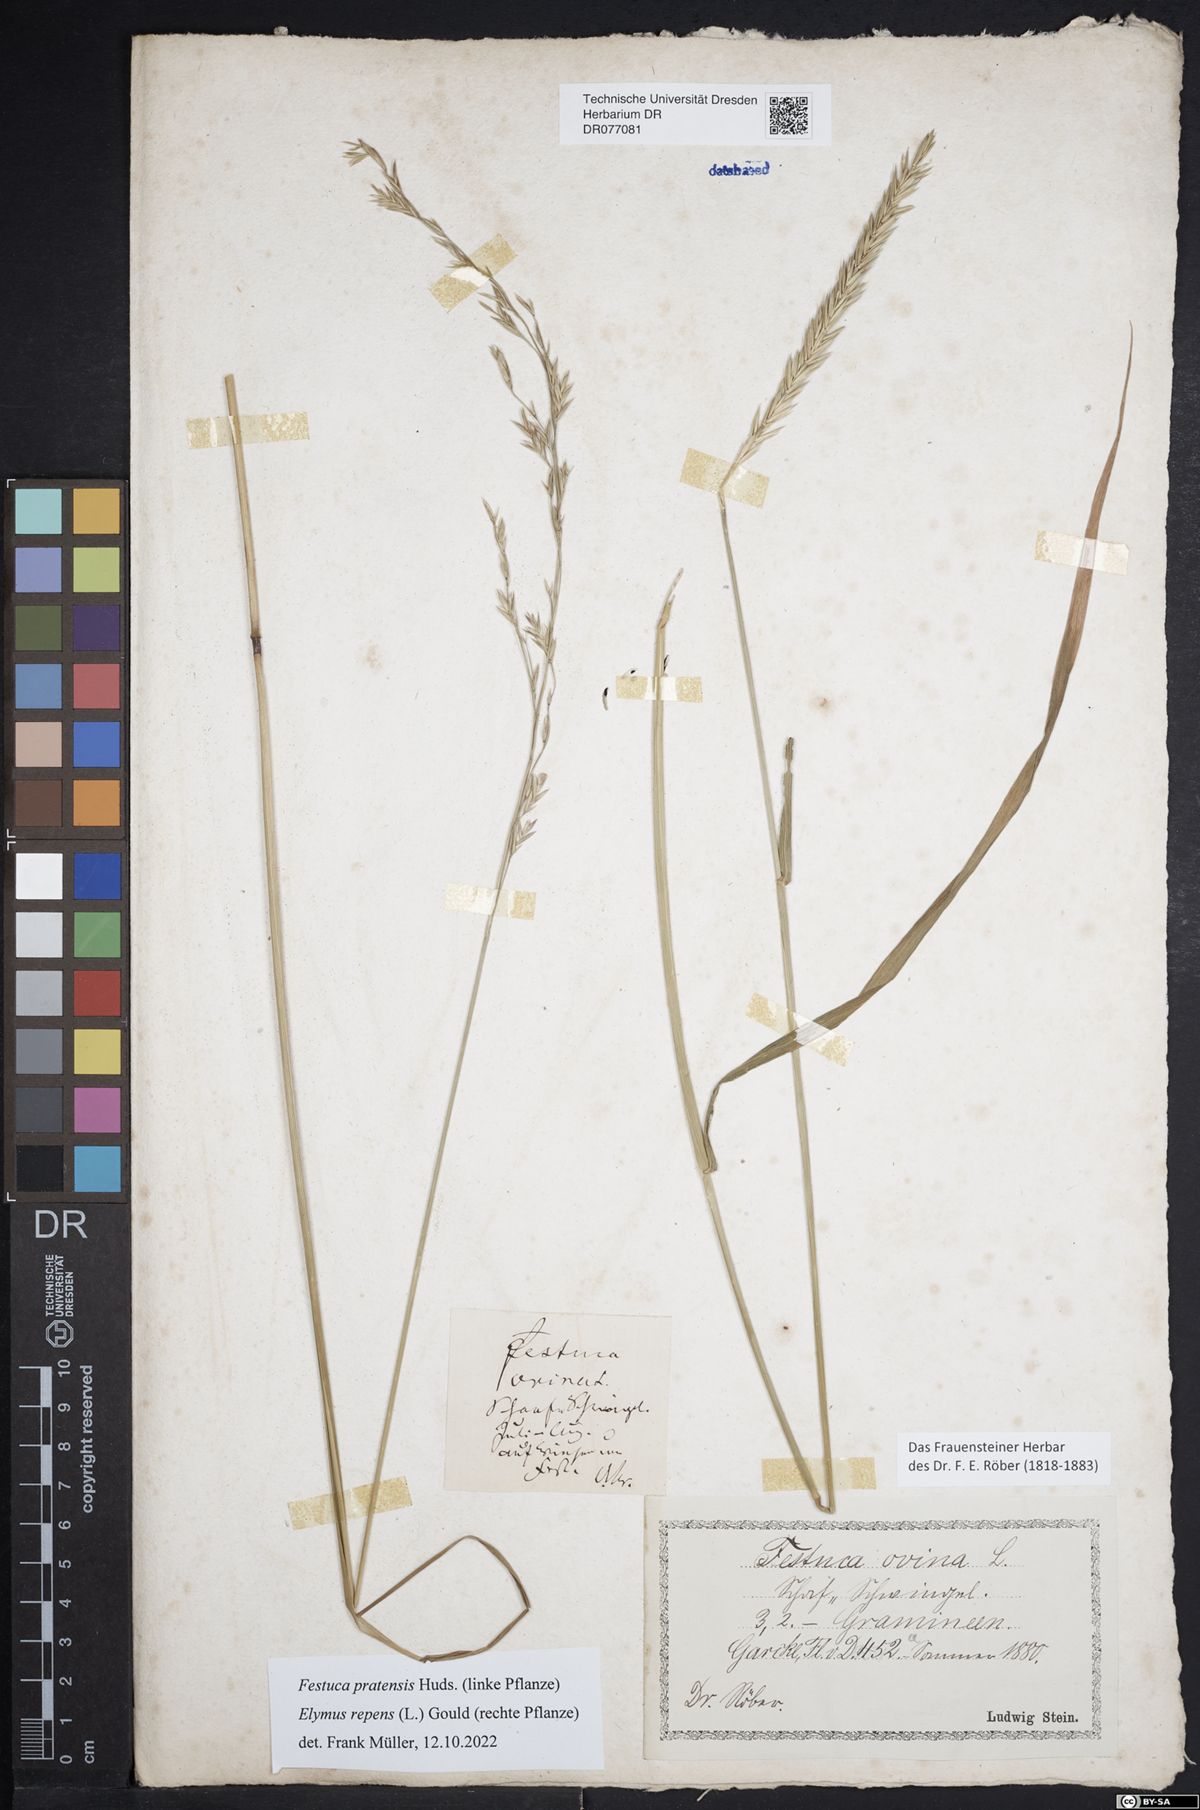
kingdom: Plantae
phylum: Tracheophyta
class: Liliopsida
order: Poales
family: Poaceae
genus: Lolium
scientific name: Lolium pratense
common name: Dover grass
